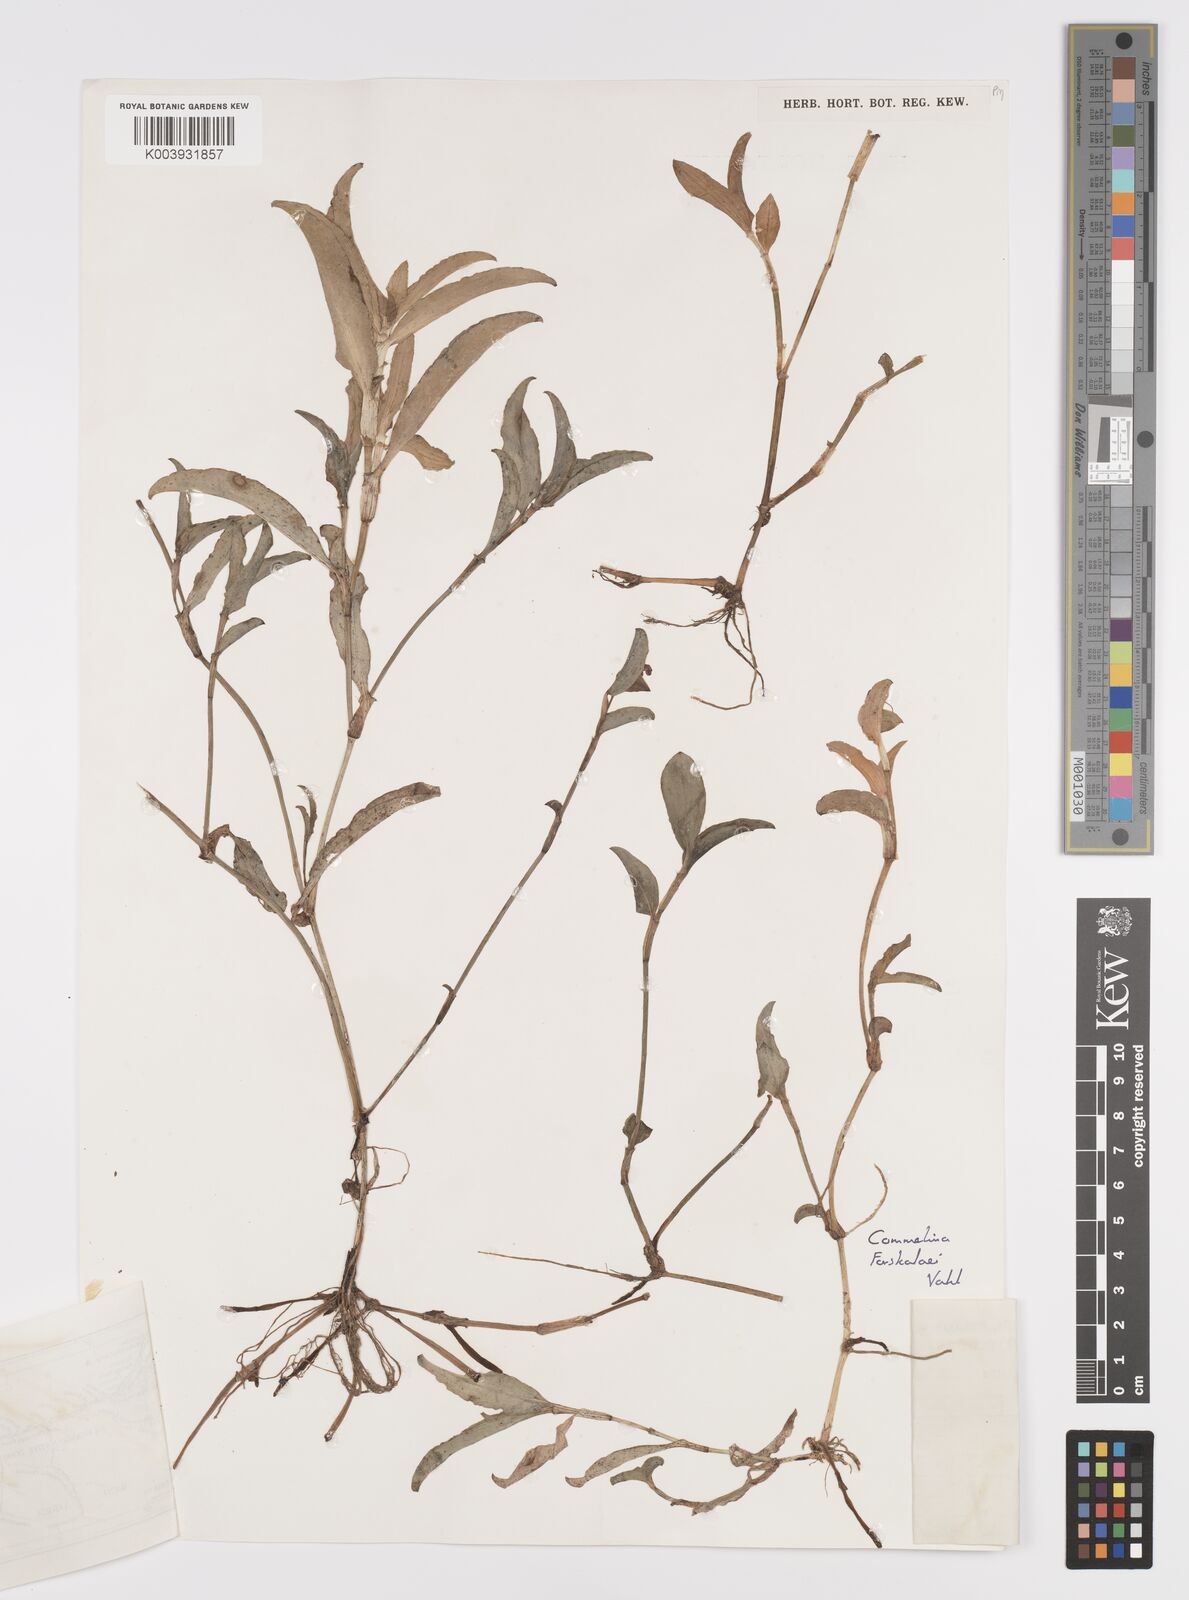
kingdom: Plantae
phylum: Tracheophyta
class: Liliopsida
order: Commelinales
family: Commelinaceae
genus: Commelina
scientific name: Commelina forskaolii
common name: Rat's ear
